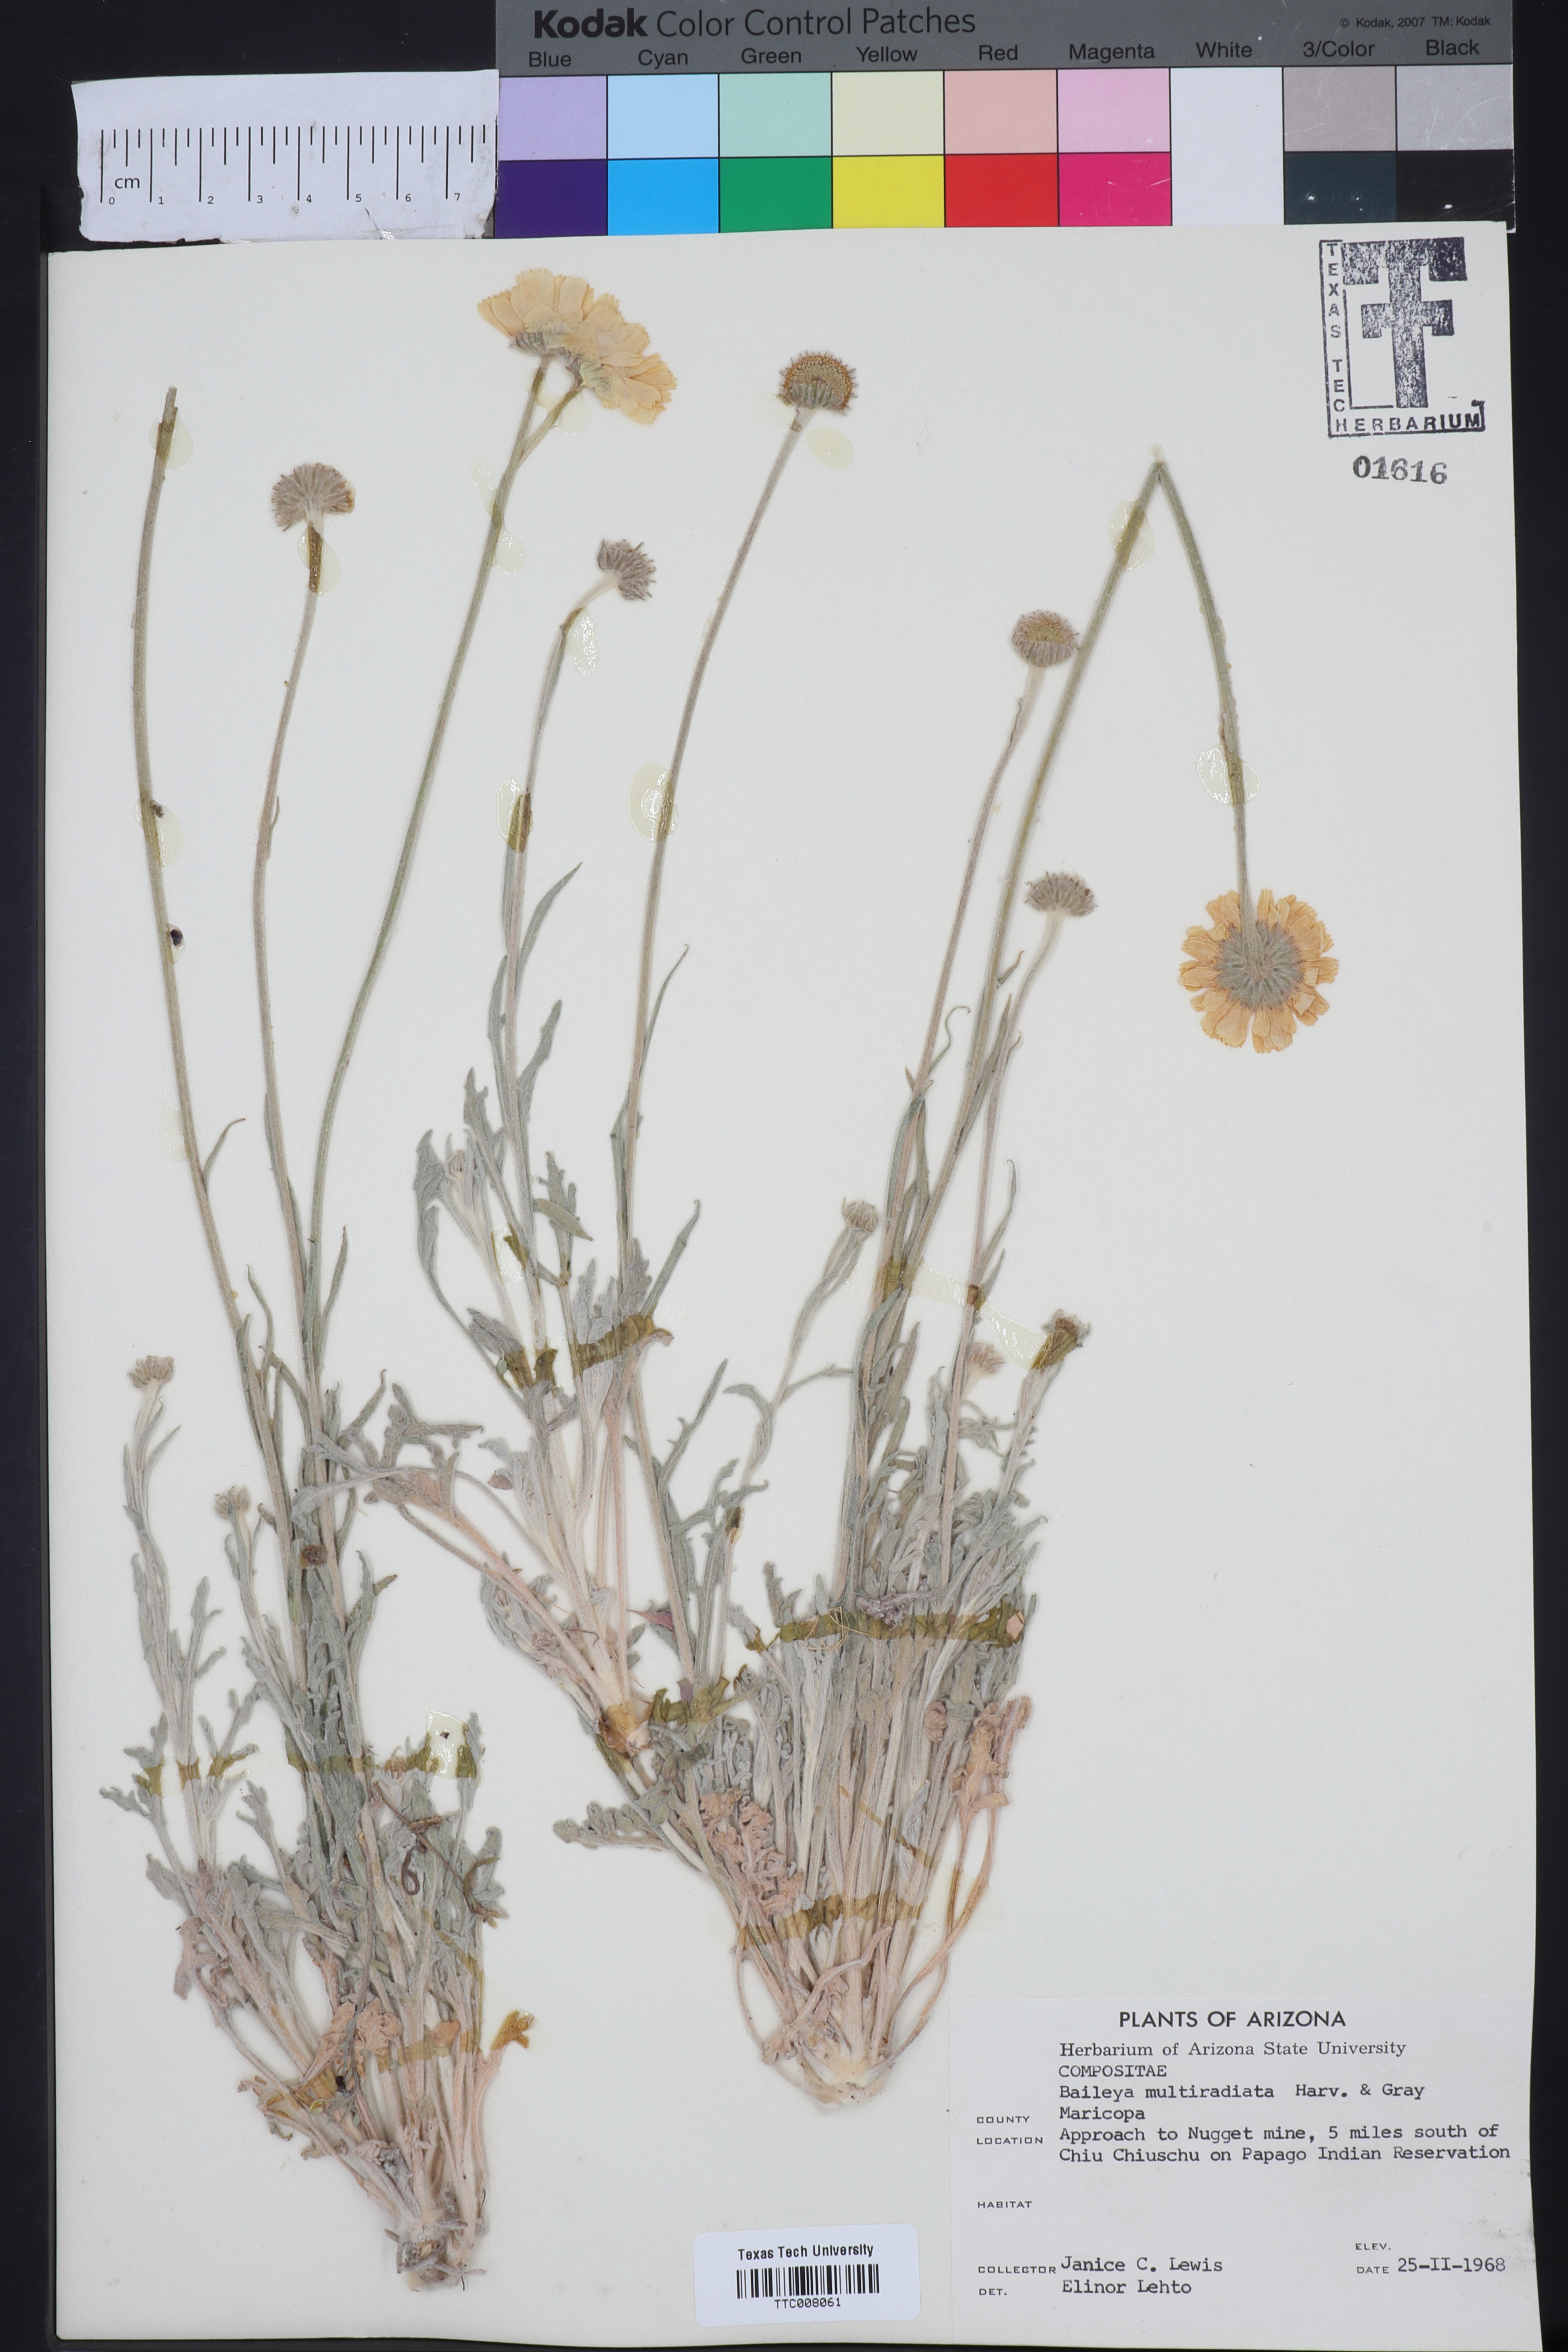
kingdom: Plantae
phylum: Tracheophyta
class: Magnoliopsida
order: Asterales
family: Asteraceae
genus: Baileya
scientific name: Baileya multiradiata
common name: Desert-marigold
